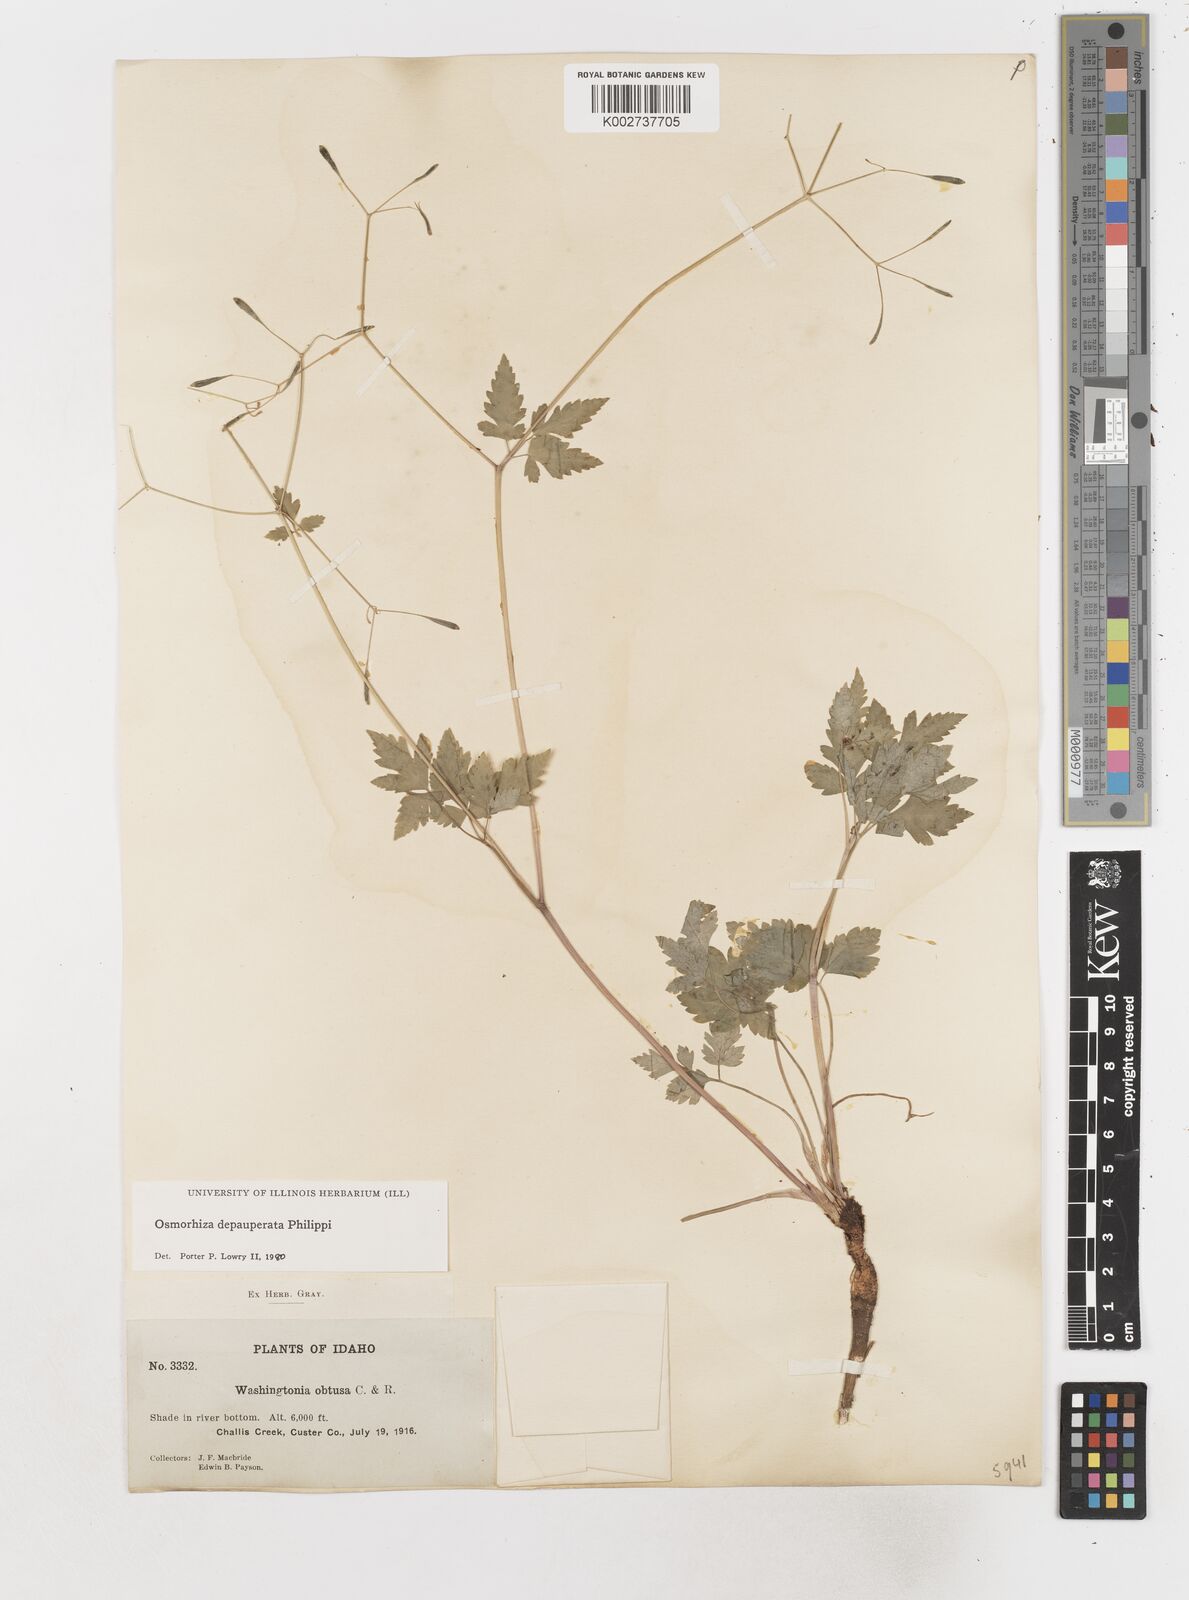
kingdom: Plantae
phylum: Tracheophyta
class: Magnoliopsida
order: Apiales
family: Apiaceae
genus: Osmorhiza
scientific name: Osmorhiza depauperata
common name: Blunt sweet cicely
